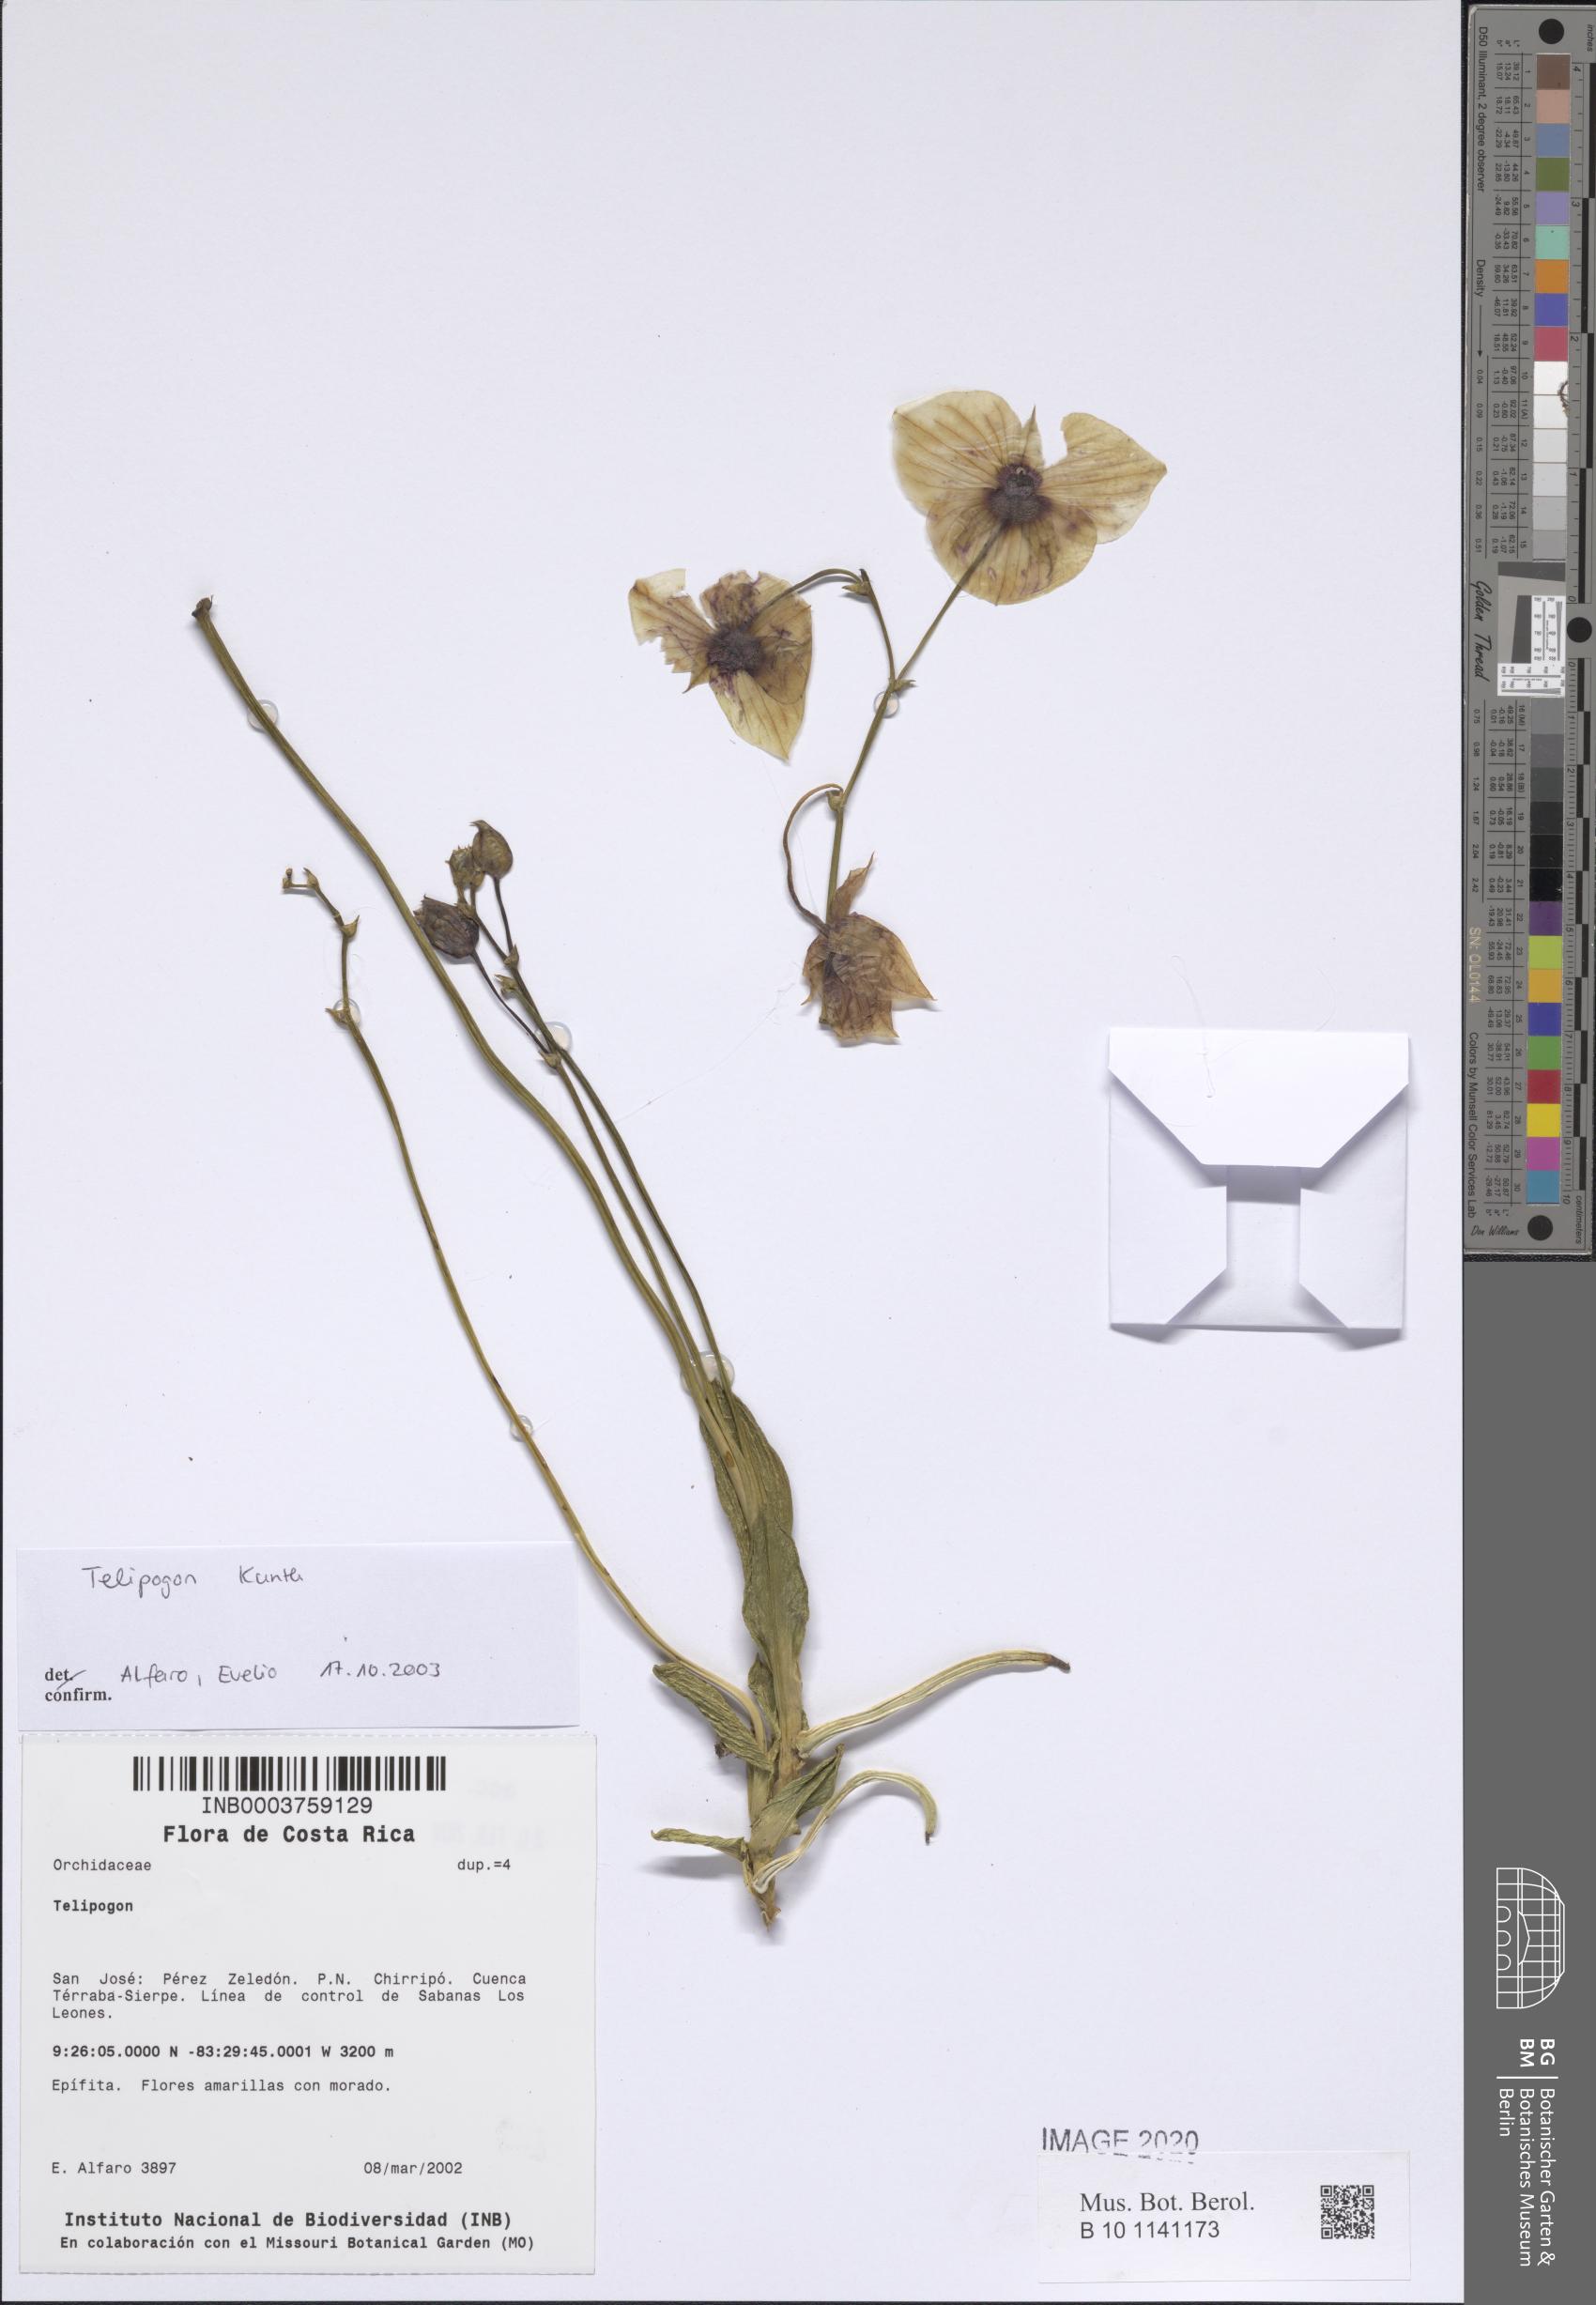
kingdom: Plantae
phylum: Tracheophyta
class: Liliopsida
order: Asparagales
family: Orchidaceae
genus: Telipogon
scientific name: Telipogon
